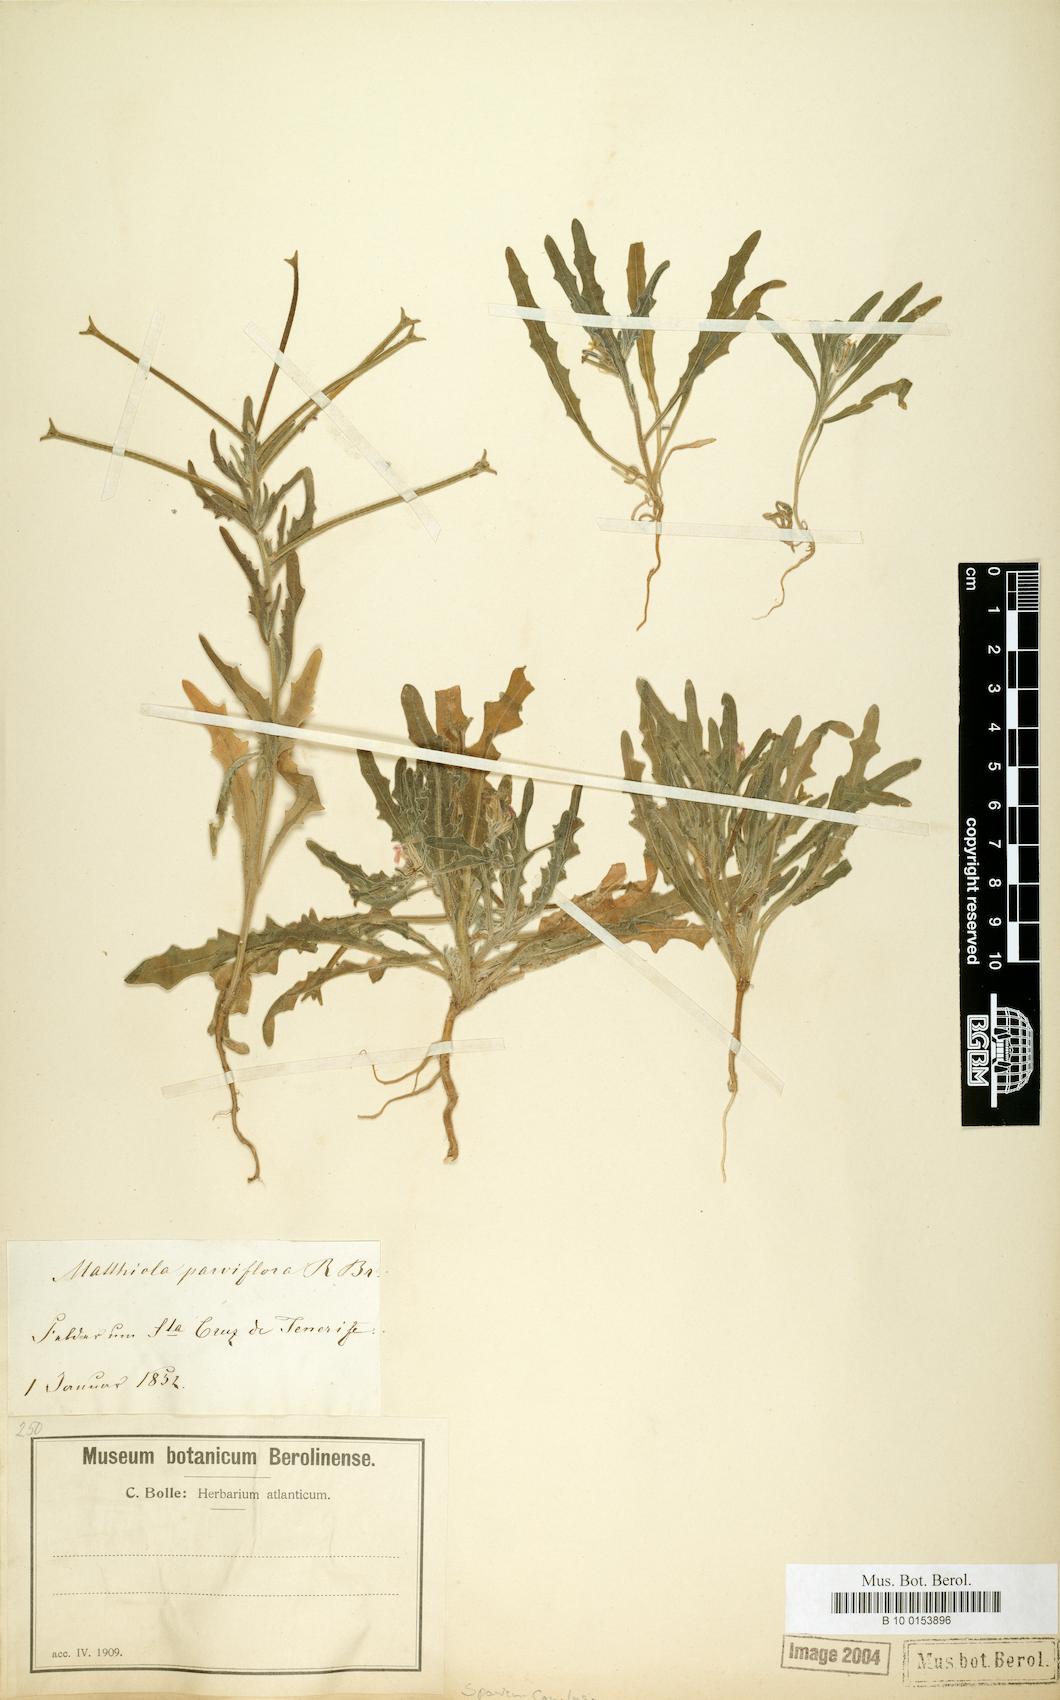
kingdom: Plantae
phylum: Tracheophyta
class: Magnoliopsida
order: Brassicales
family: Brassicaceae
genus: Matthiola
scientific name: Matthiola parviflora
